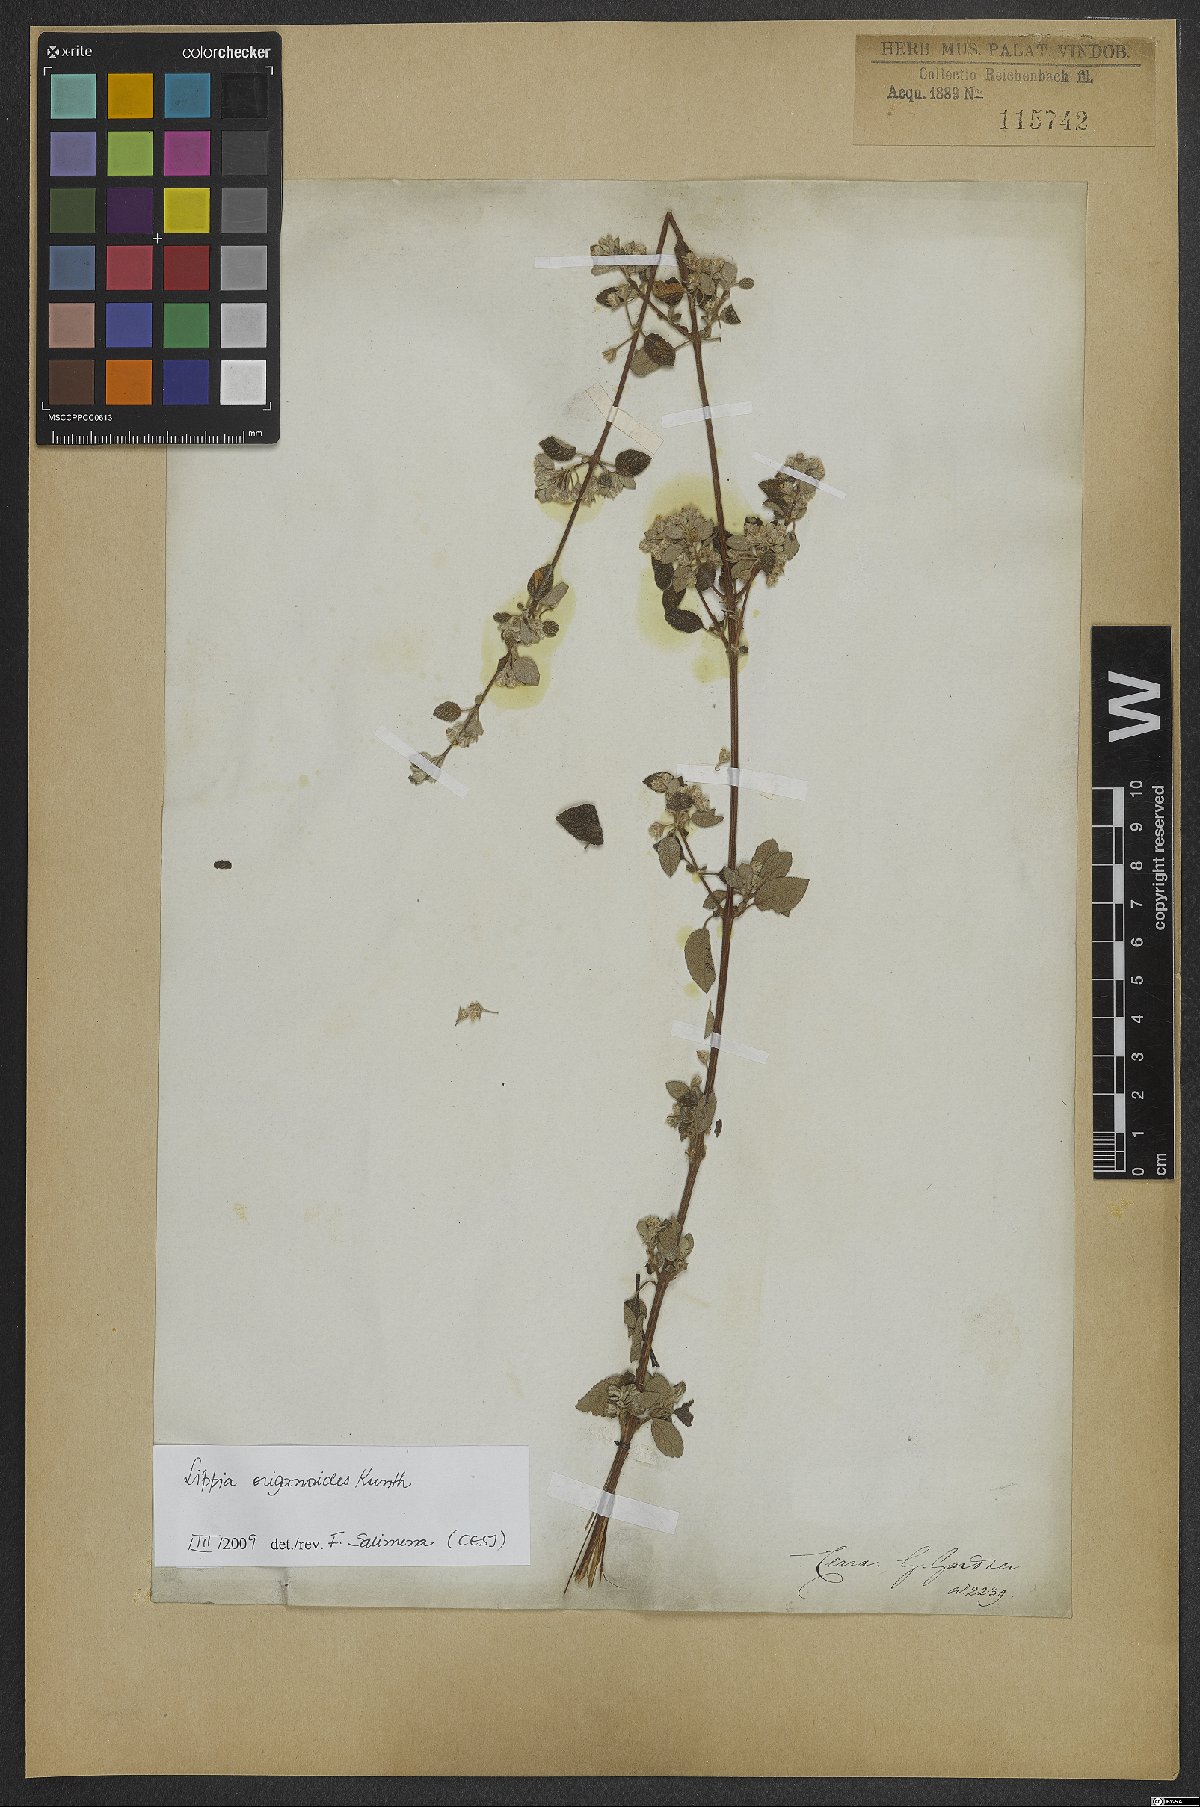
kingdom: Plantae
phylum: Tracheophyta
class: Magnoliopsida
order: Lamiales
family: Verbenaceae
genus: Lippia
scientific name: Lippia origanoides
